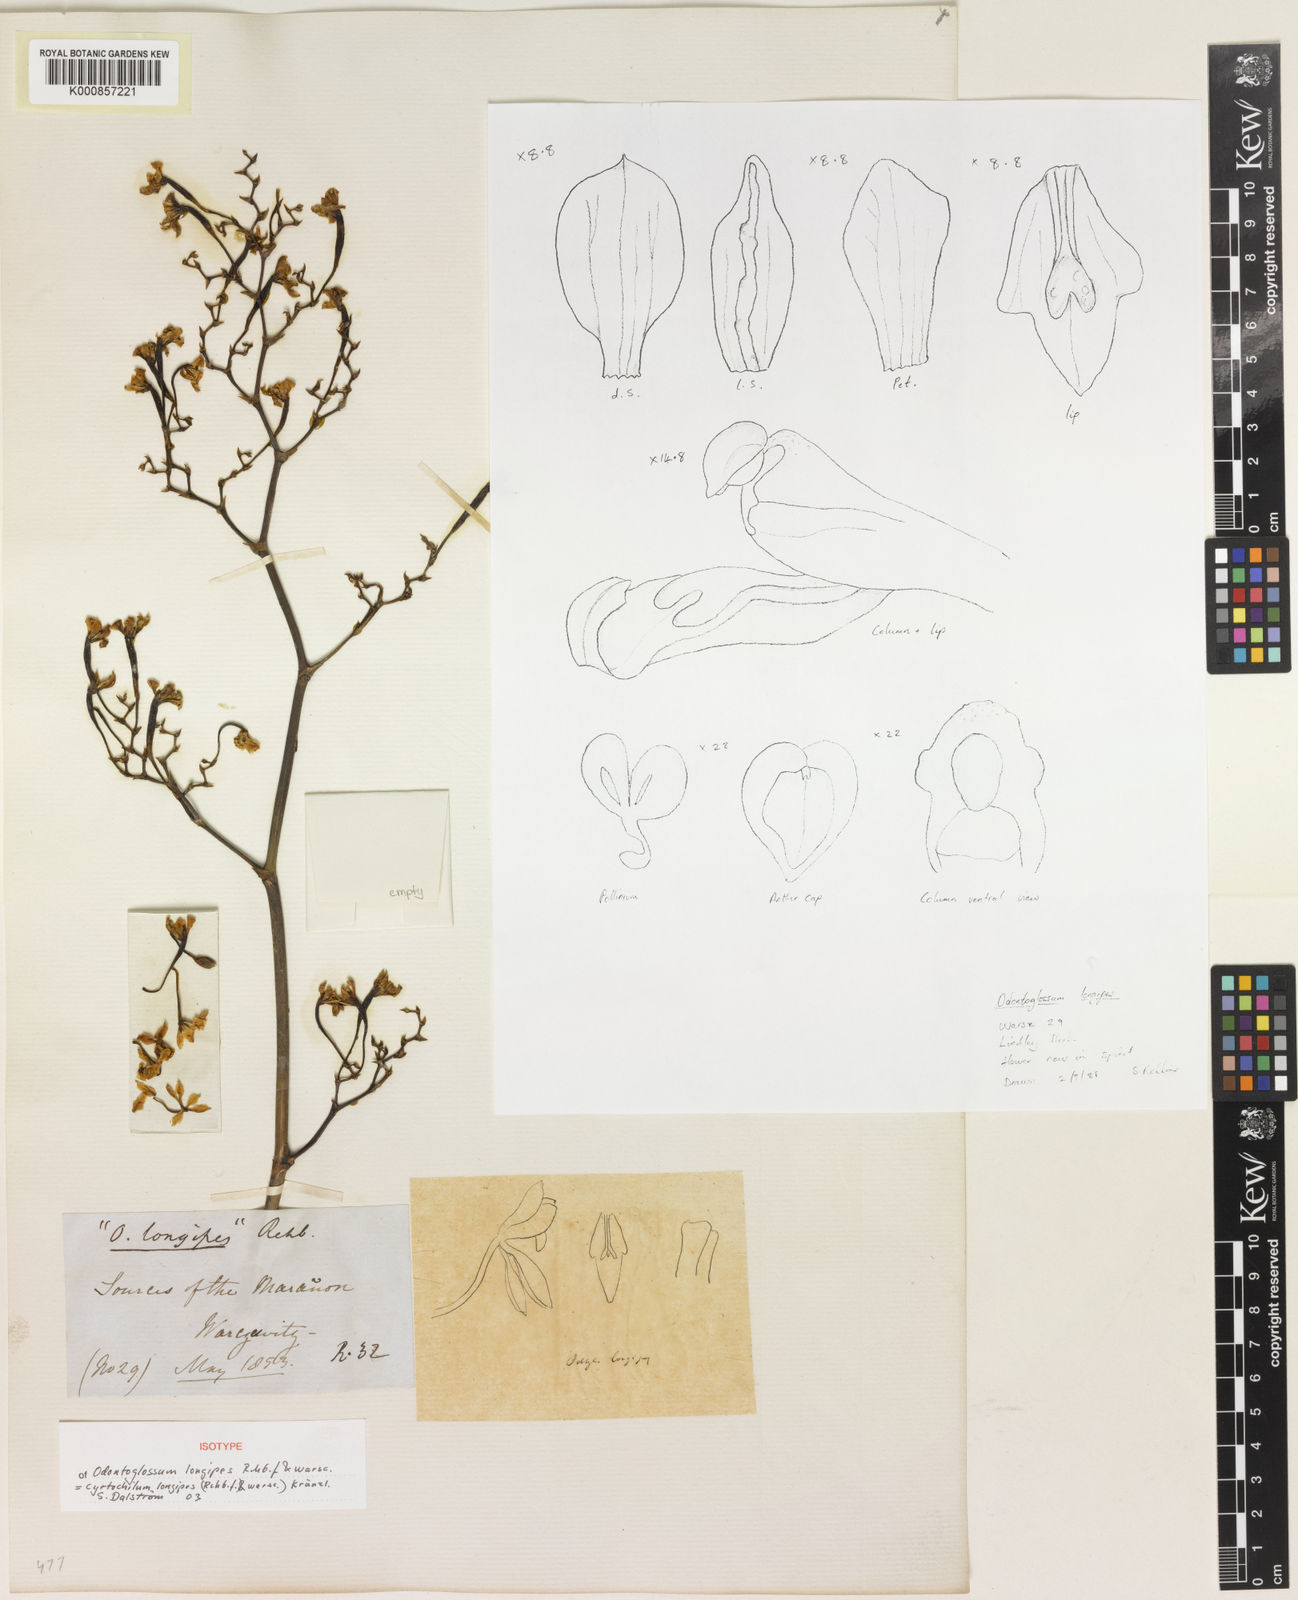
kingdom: Plantae
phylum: Tracheophyta
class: Liliopsida
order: Asparagales
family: Orchidaceae
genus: Cyrtochilum
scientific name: Cyrtochilum longipes
